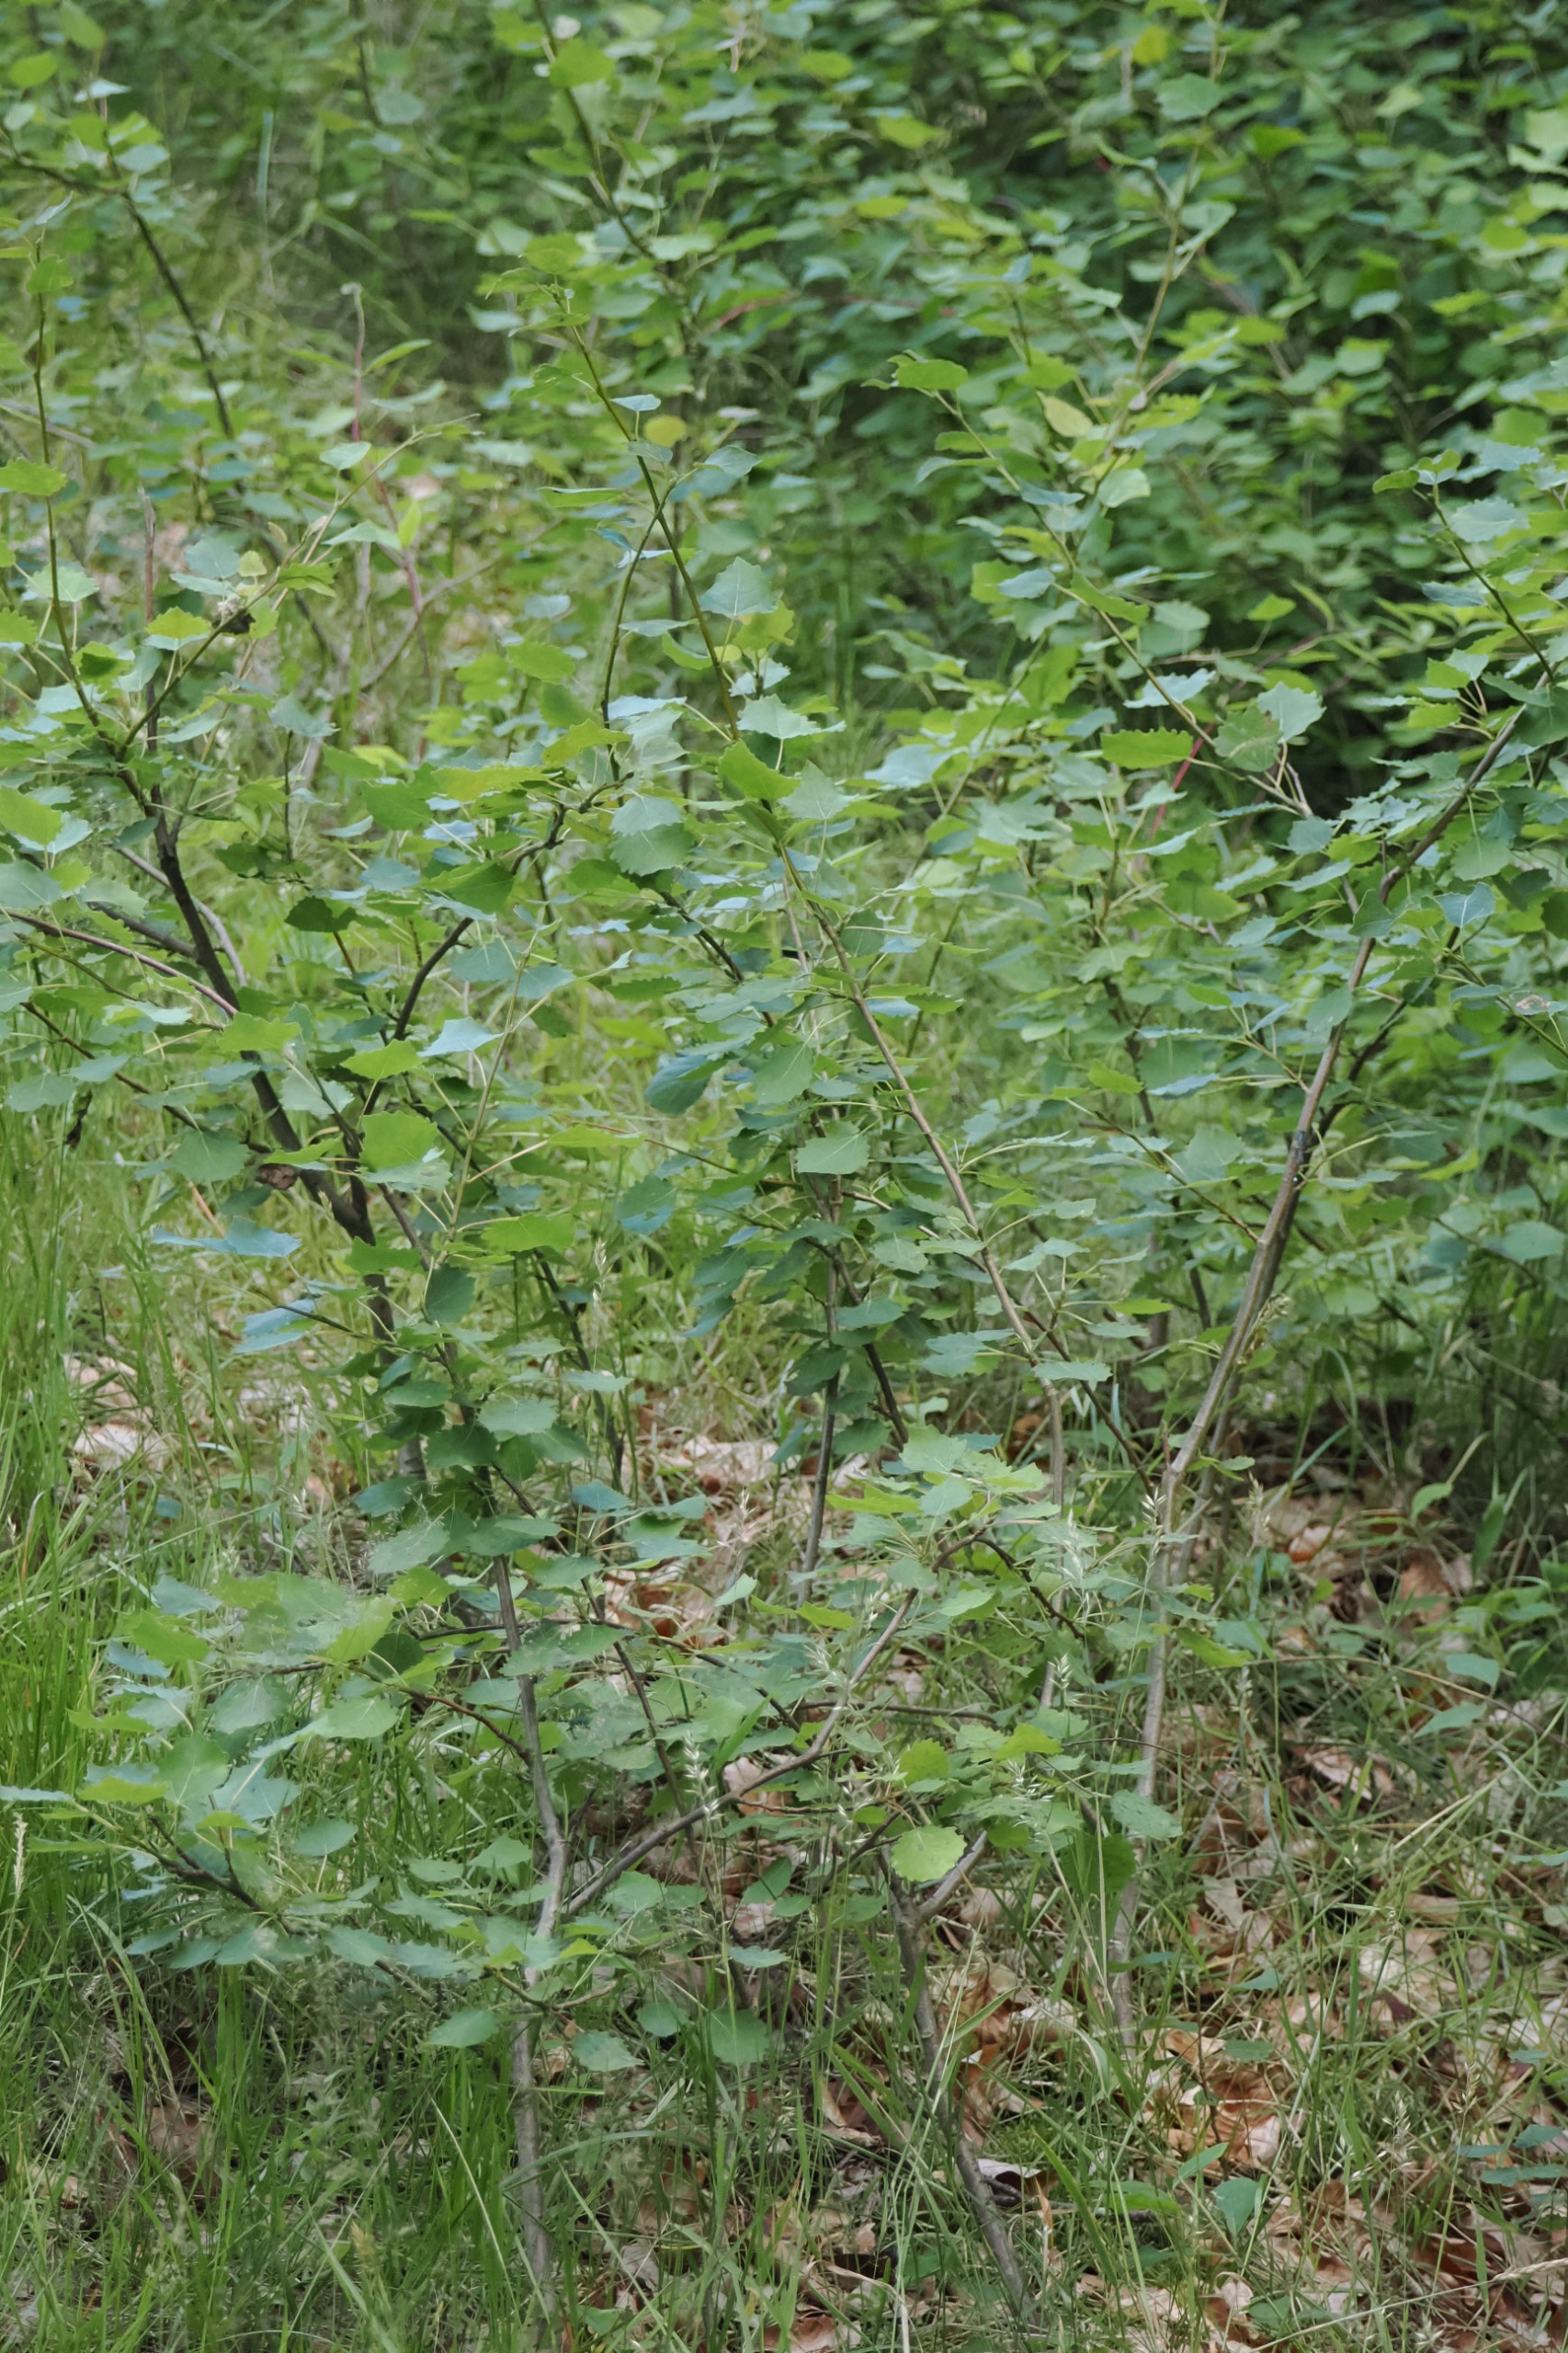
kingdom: Plantae
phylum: Tracheophyta
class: Magnoliopsida
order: Malpighiales
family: Salicaceae
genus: Populus
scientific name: Populus tremula
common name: Bævreasp
